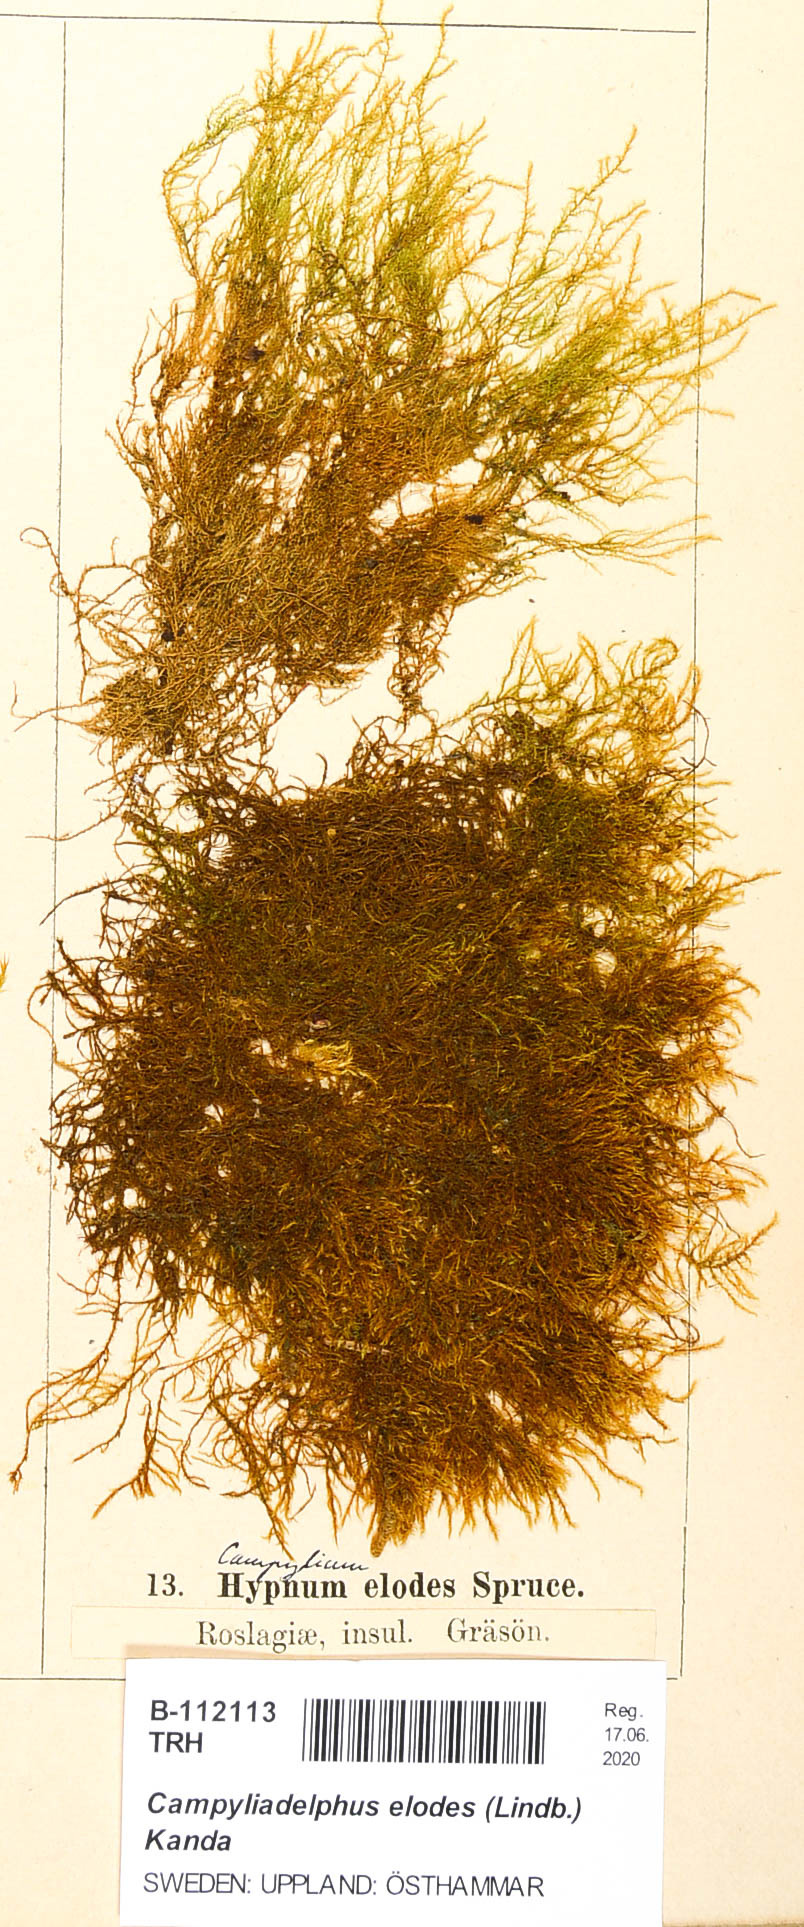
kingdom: Plantae
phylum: Bryophyta
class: Bryopsida
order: Hypnales
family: Amblystegiaceae
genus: Kandaea
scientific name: Kandaea elodes
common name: Fine-leaved marsh feather-moss
